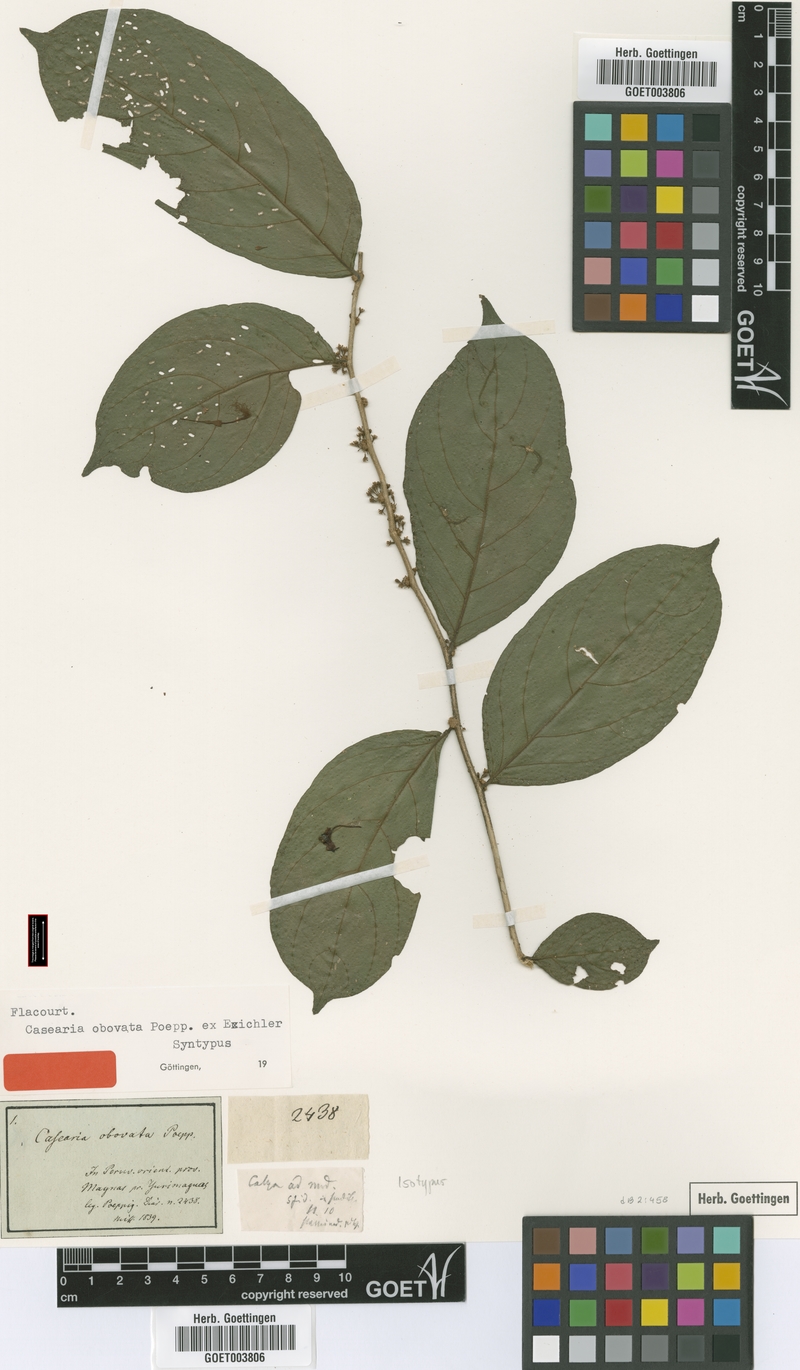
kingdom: Plantae
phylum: Tracheophyta
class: Magnoliopsida
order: Malpighiales
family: Salicaceae
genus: Casearia
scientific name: Casearia tenuipilosa
